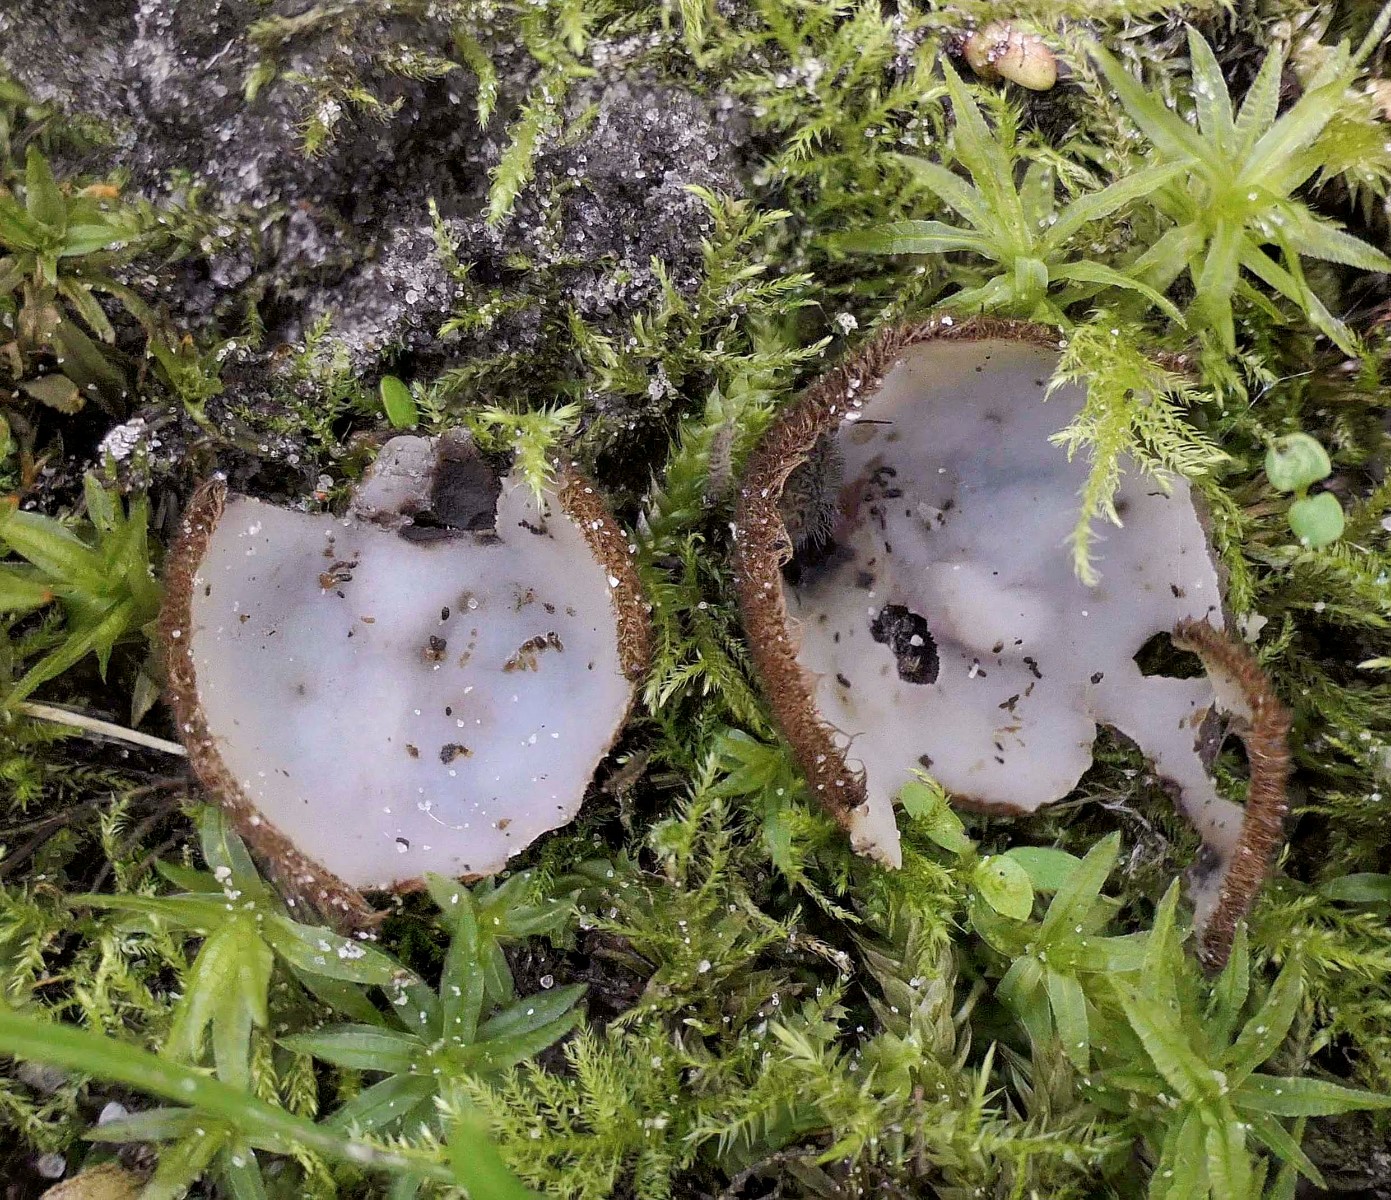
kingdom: Fungi
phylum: Ascomycota
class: Pezizomycetes
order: Pezizales
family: Pyronemataceae
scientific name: Pyronemataceae
